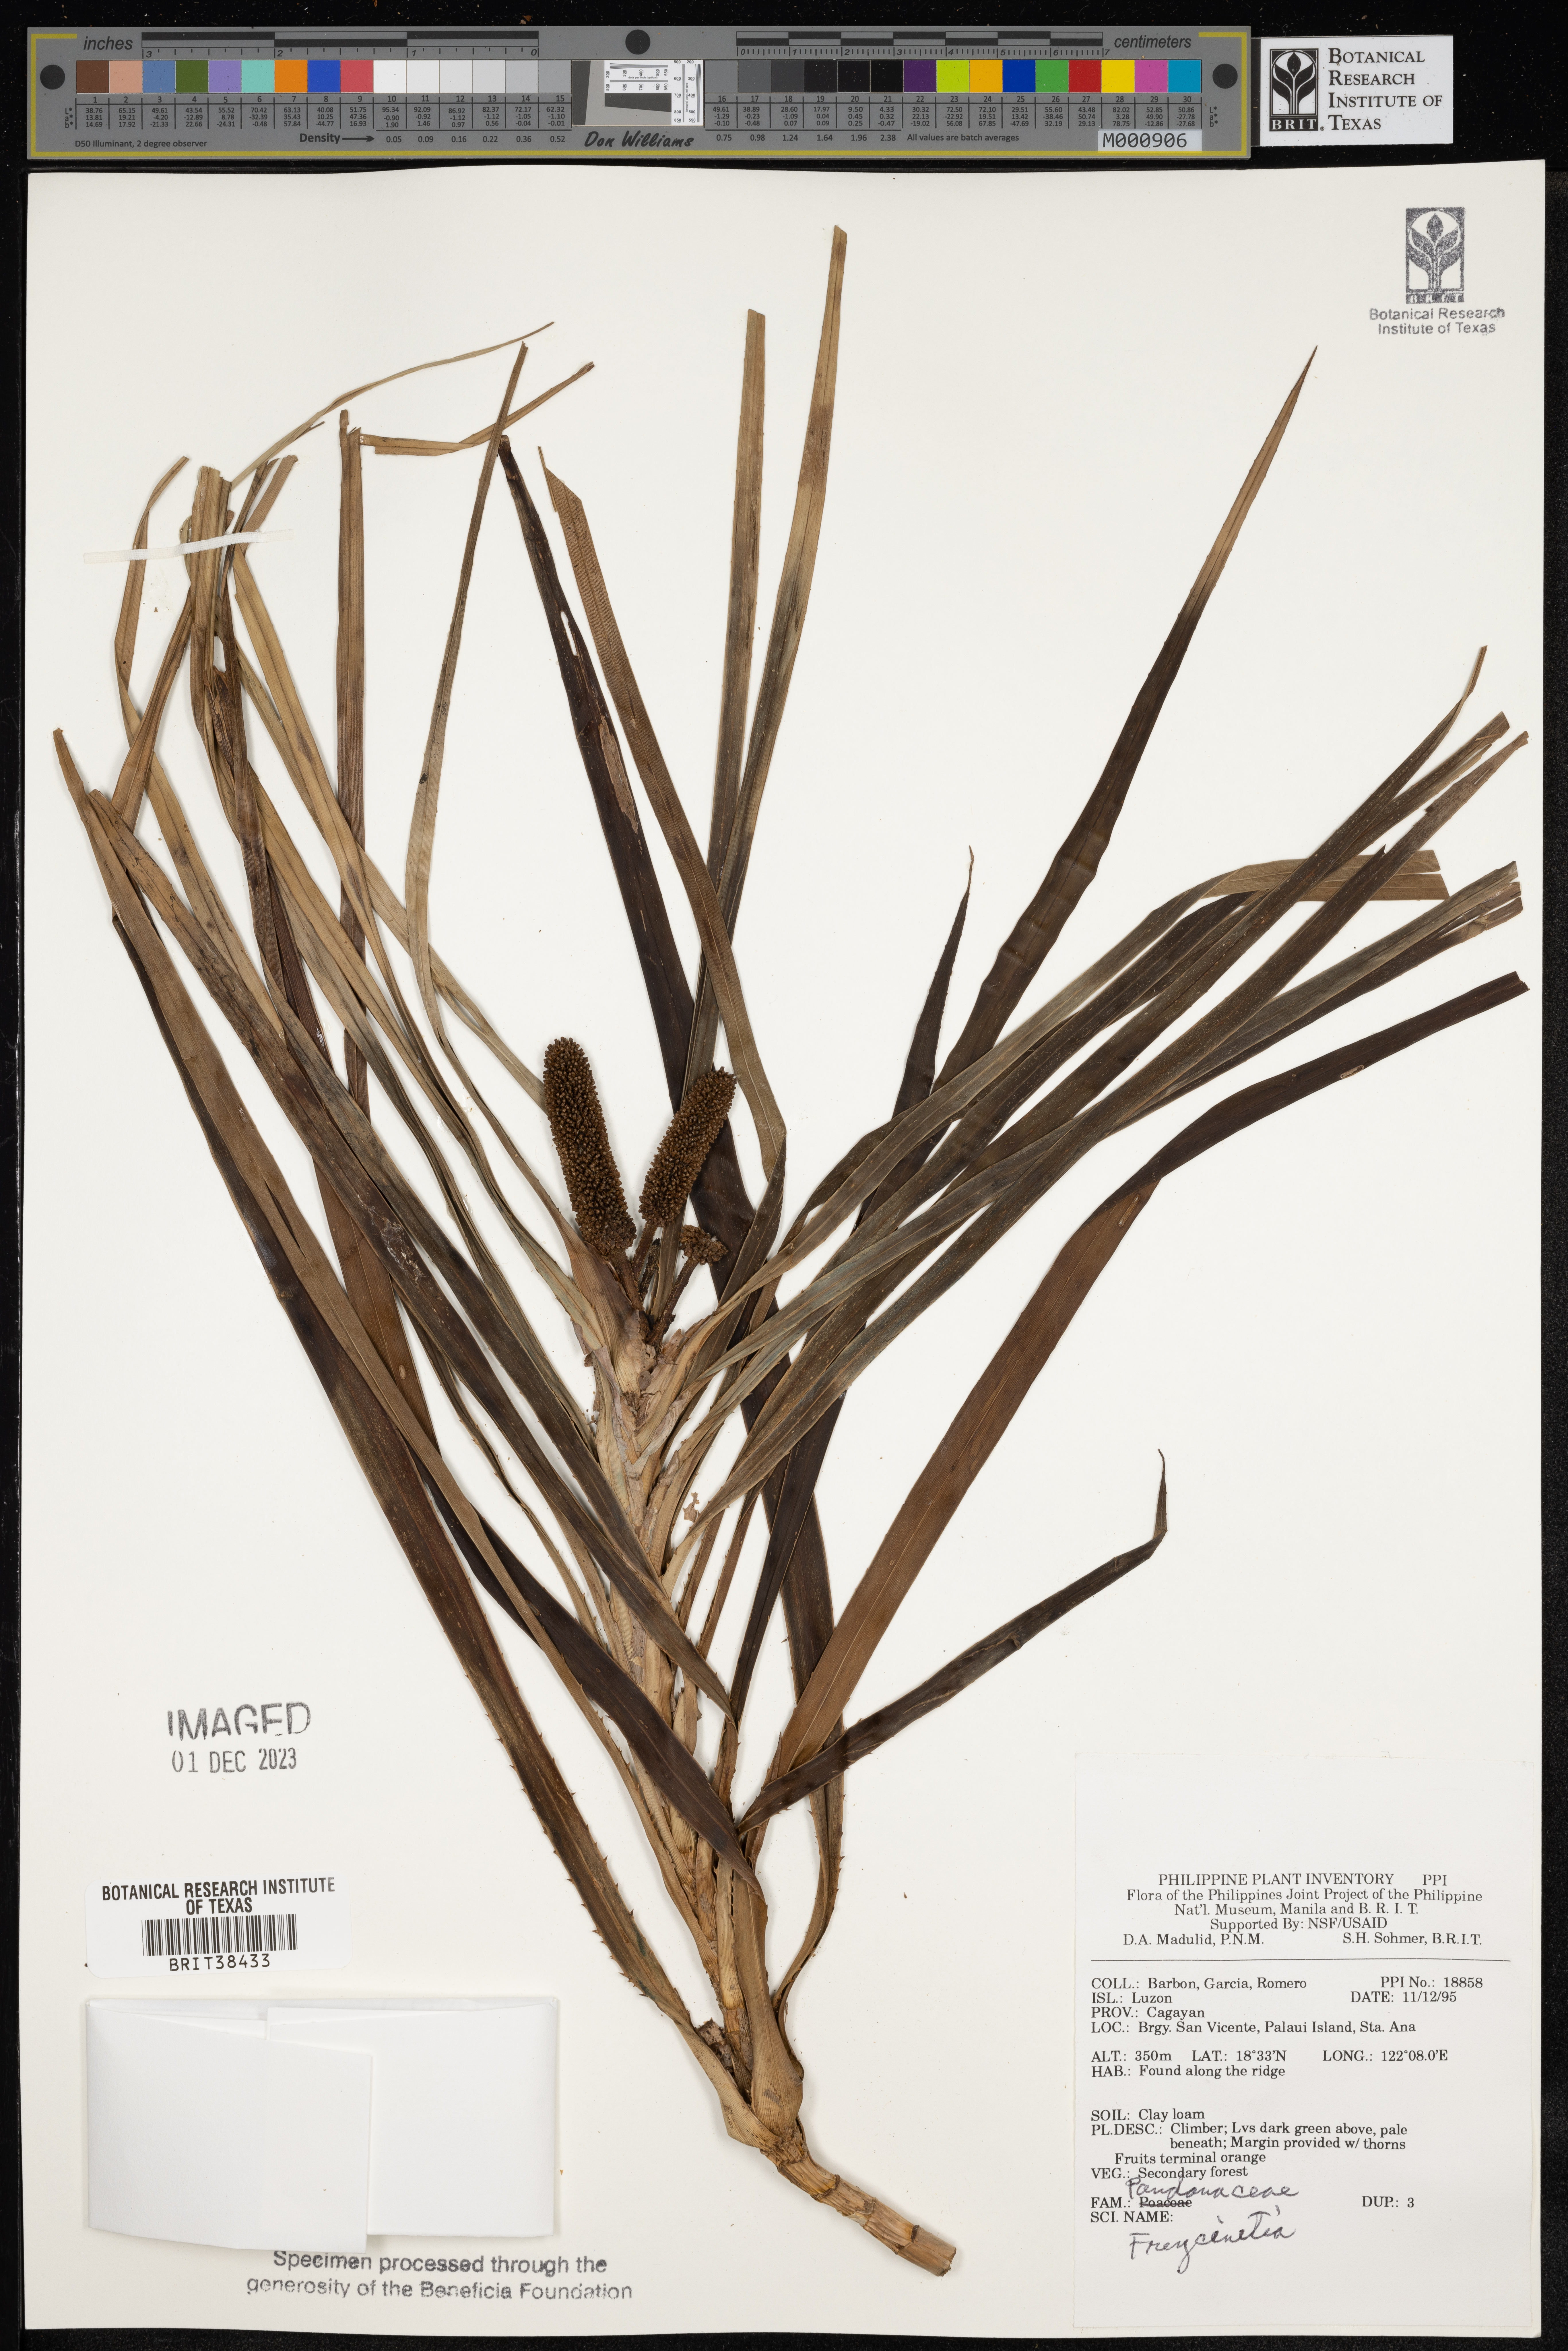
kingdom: Plantae
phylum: Tracheophyta
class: Liliopsida
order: Pandanales
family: Pandanaceae
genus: Freycinetia
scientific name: Freycinetia
